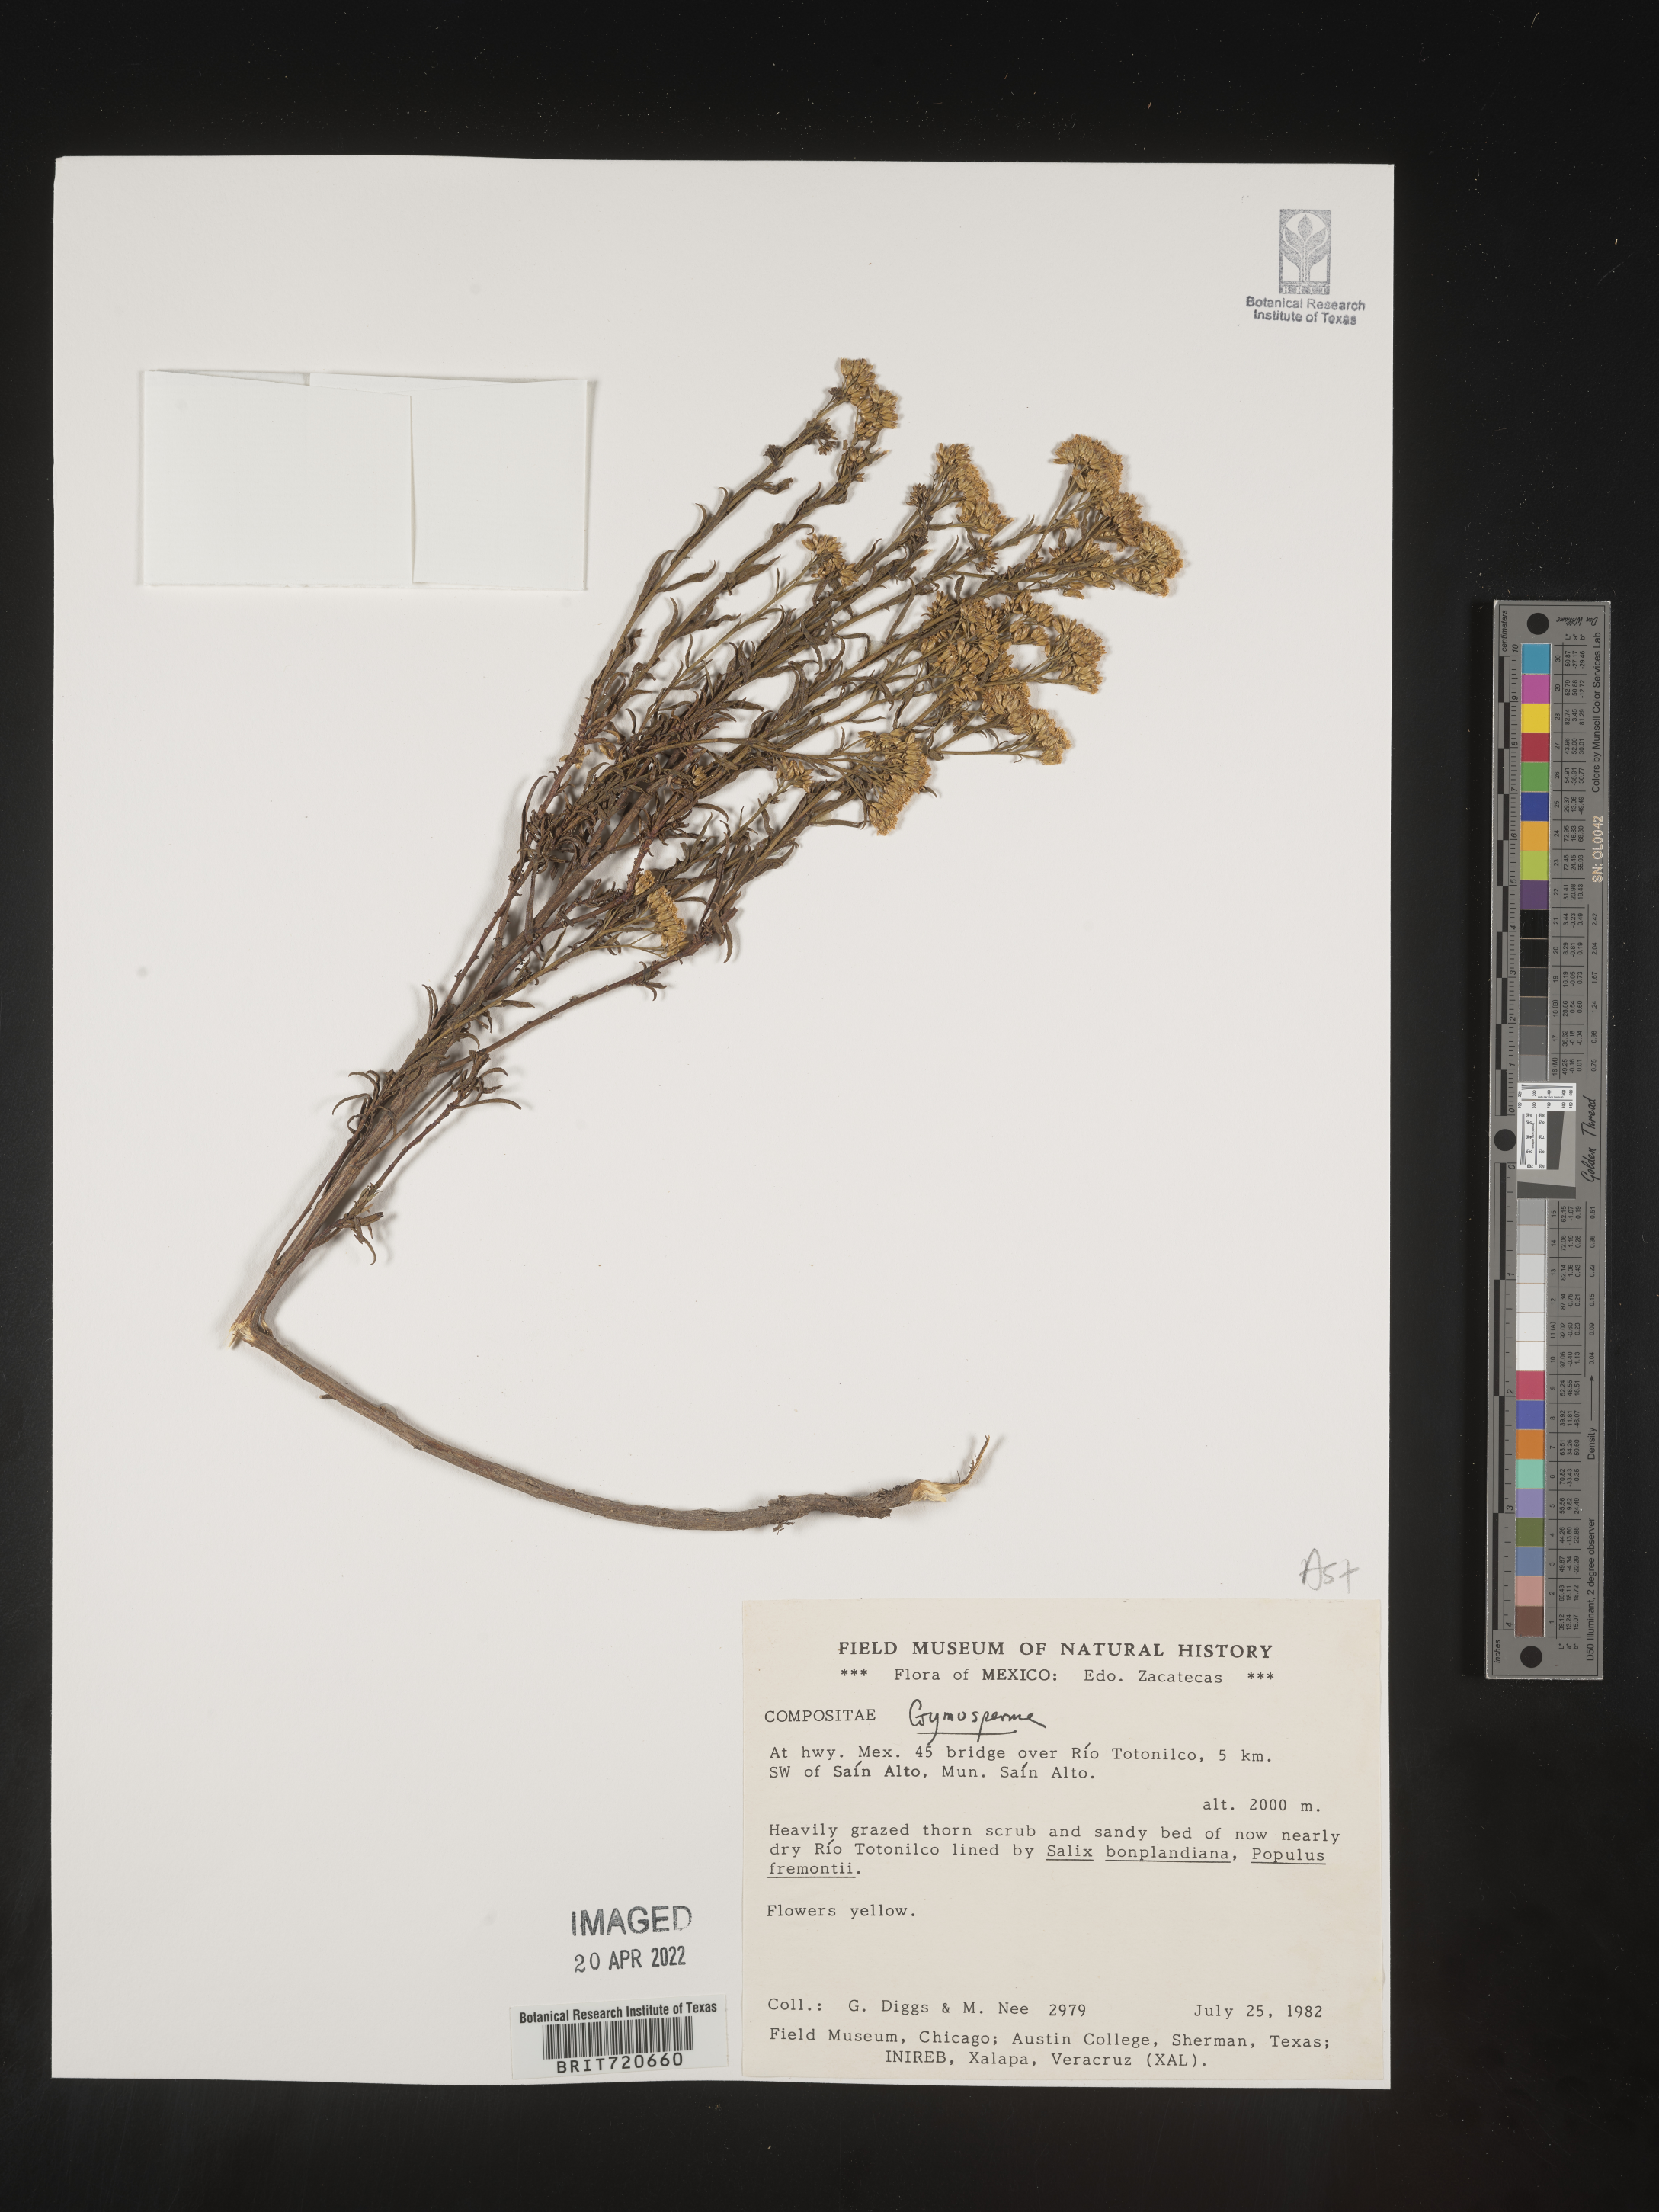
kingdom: Plantae
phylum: Tracheophyta
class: Magnoliopsida
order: Asterales
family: Asteraceae
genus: Gymnosperma
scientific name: Gymnosperma glutinosum
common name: Gumhead
